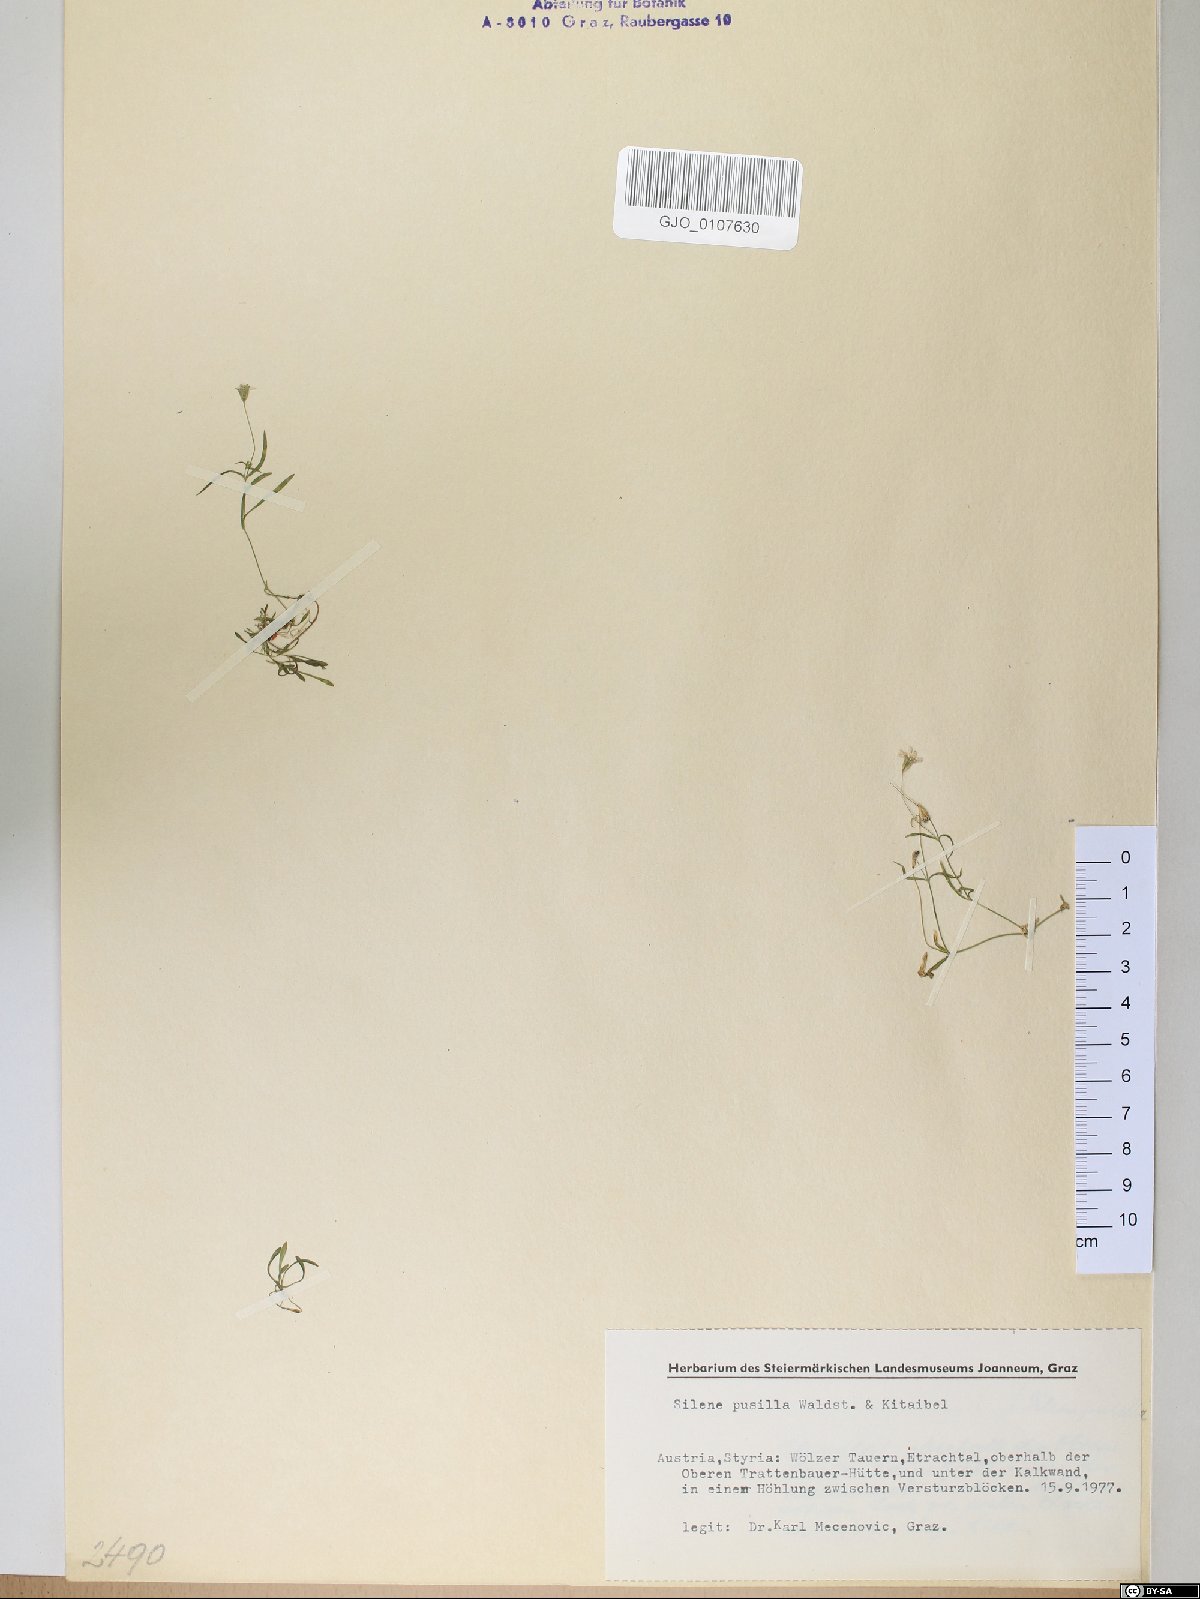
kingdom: Plantae
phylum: Tracheophyta
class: Magnoliopsida
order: Caryophyllales
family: Caryophyllaceae
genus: Heliosperma
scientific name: Heliosperma pusillum
